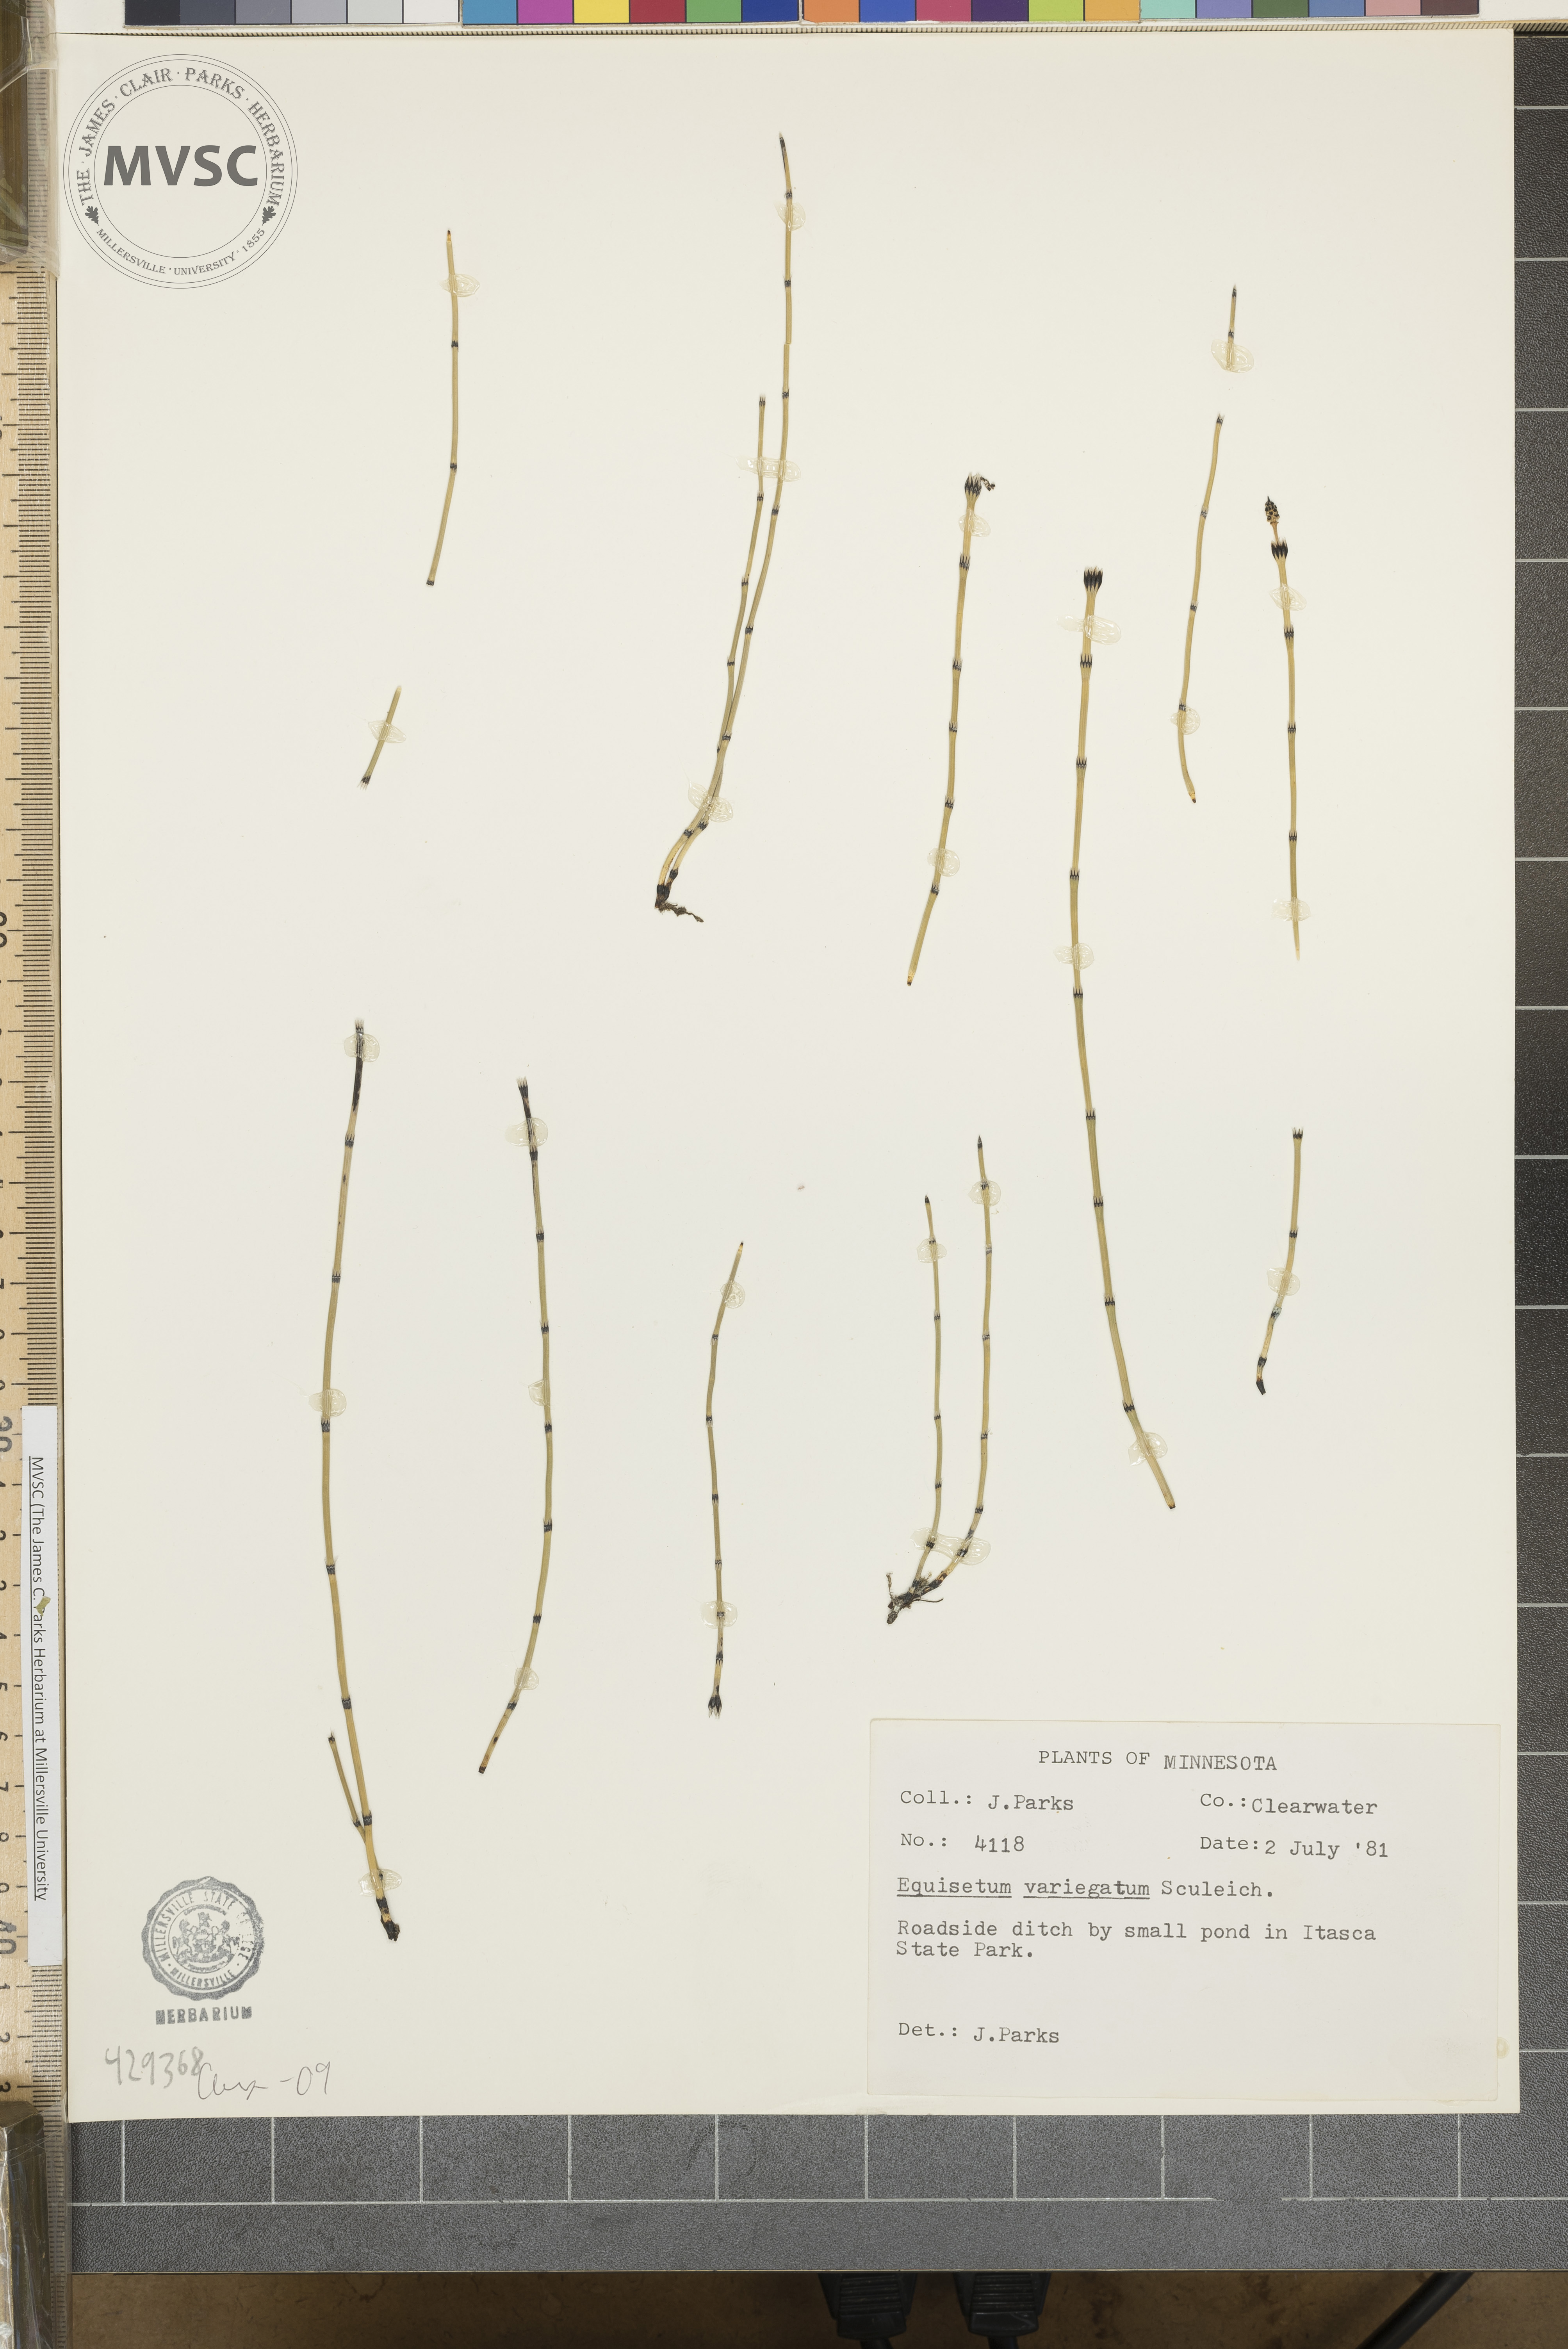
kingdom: Plantae
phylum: Tracheophyta
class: Polypodiopsida
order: Equisetales
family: Equisetaceae
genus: Equisetum
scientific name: Equisetum variegatum
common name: Variegated horsetail
